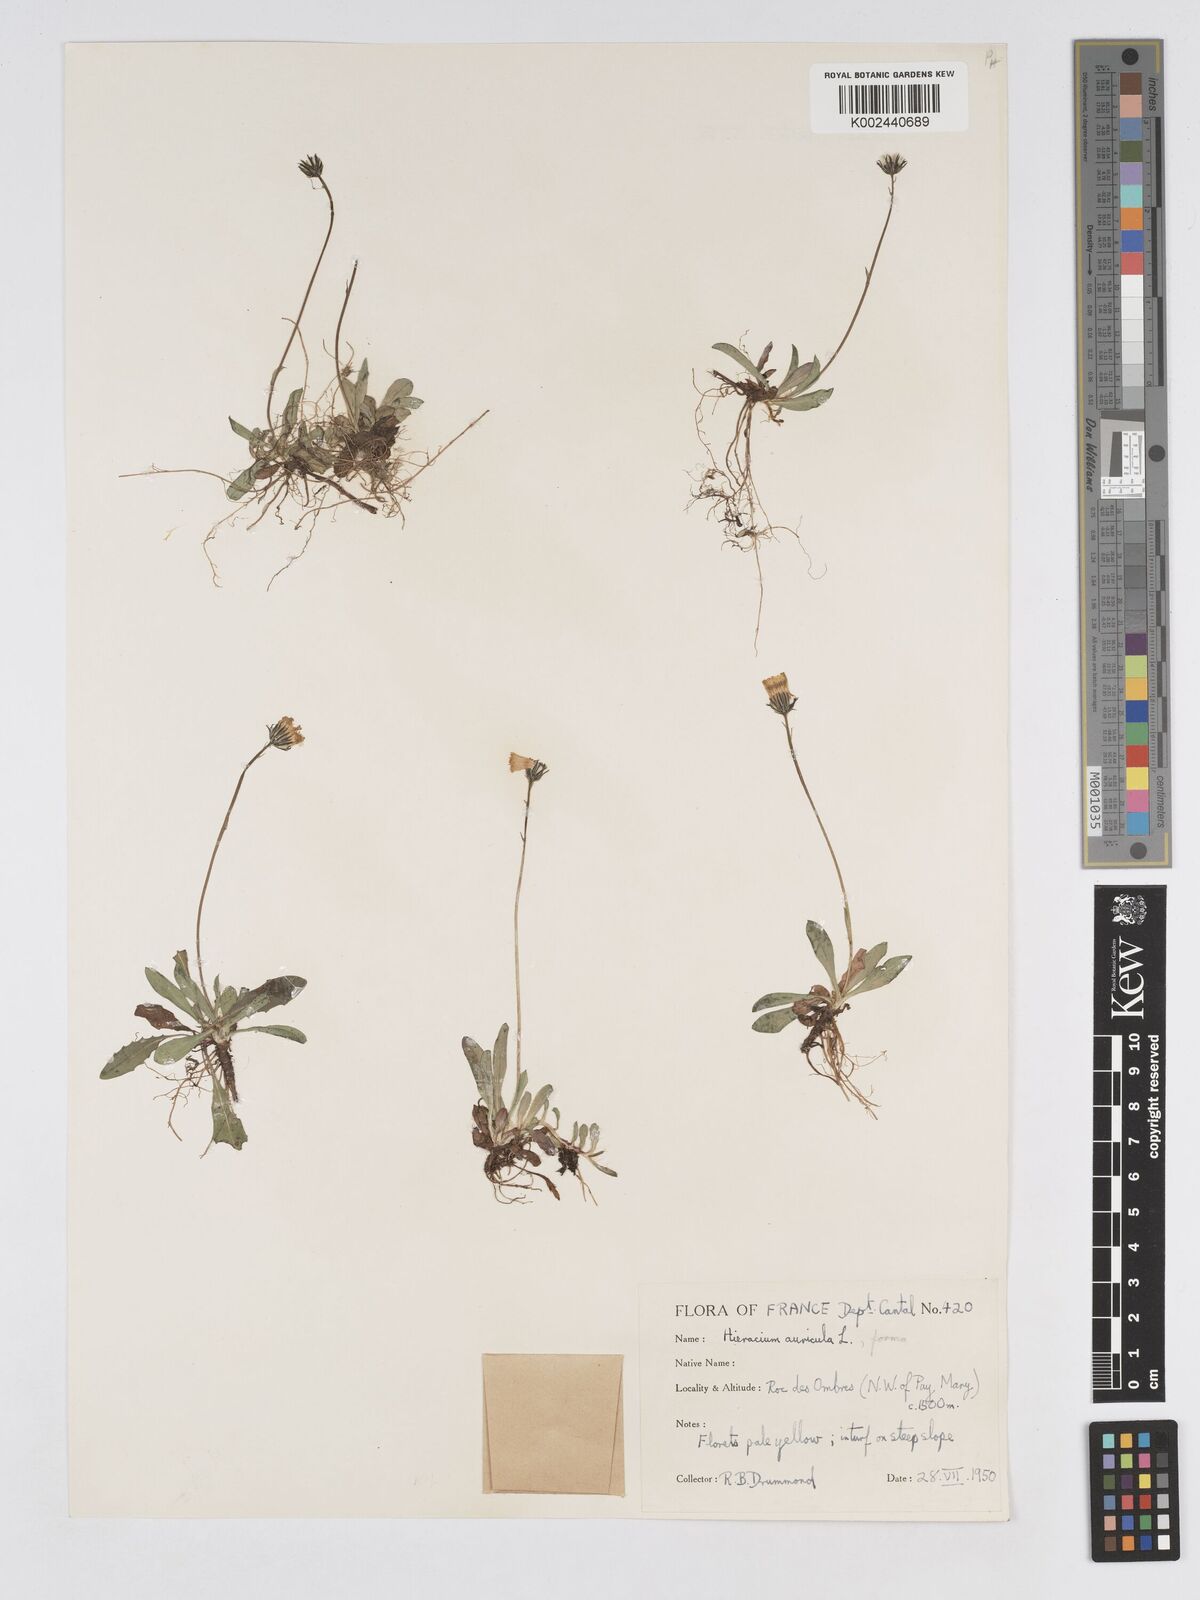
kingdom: Plantae
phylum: Tracheophyta
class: Magnoliopsida
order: Asterales
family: Asteraceae
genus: Pilosella
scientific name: Pilosella floribunda
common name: Glaucous hawkweed
